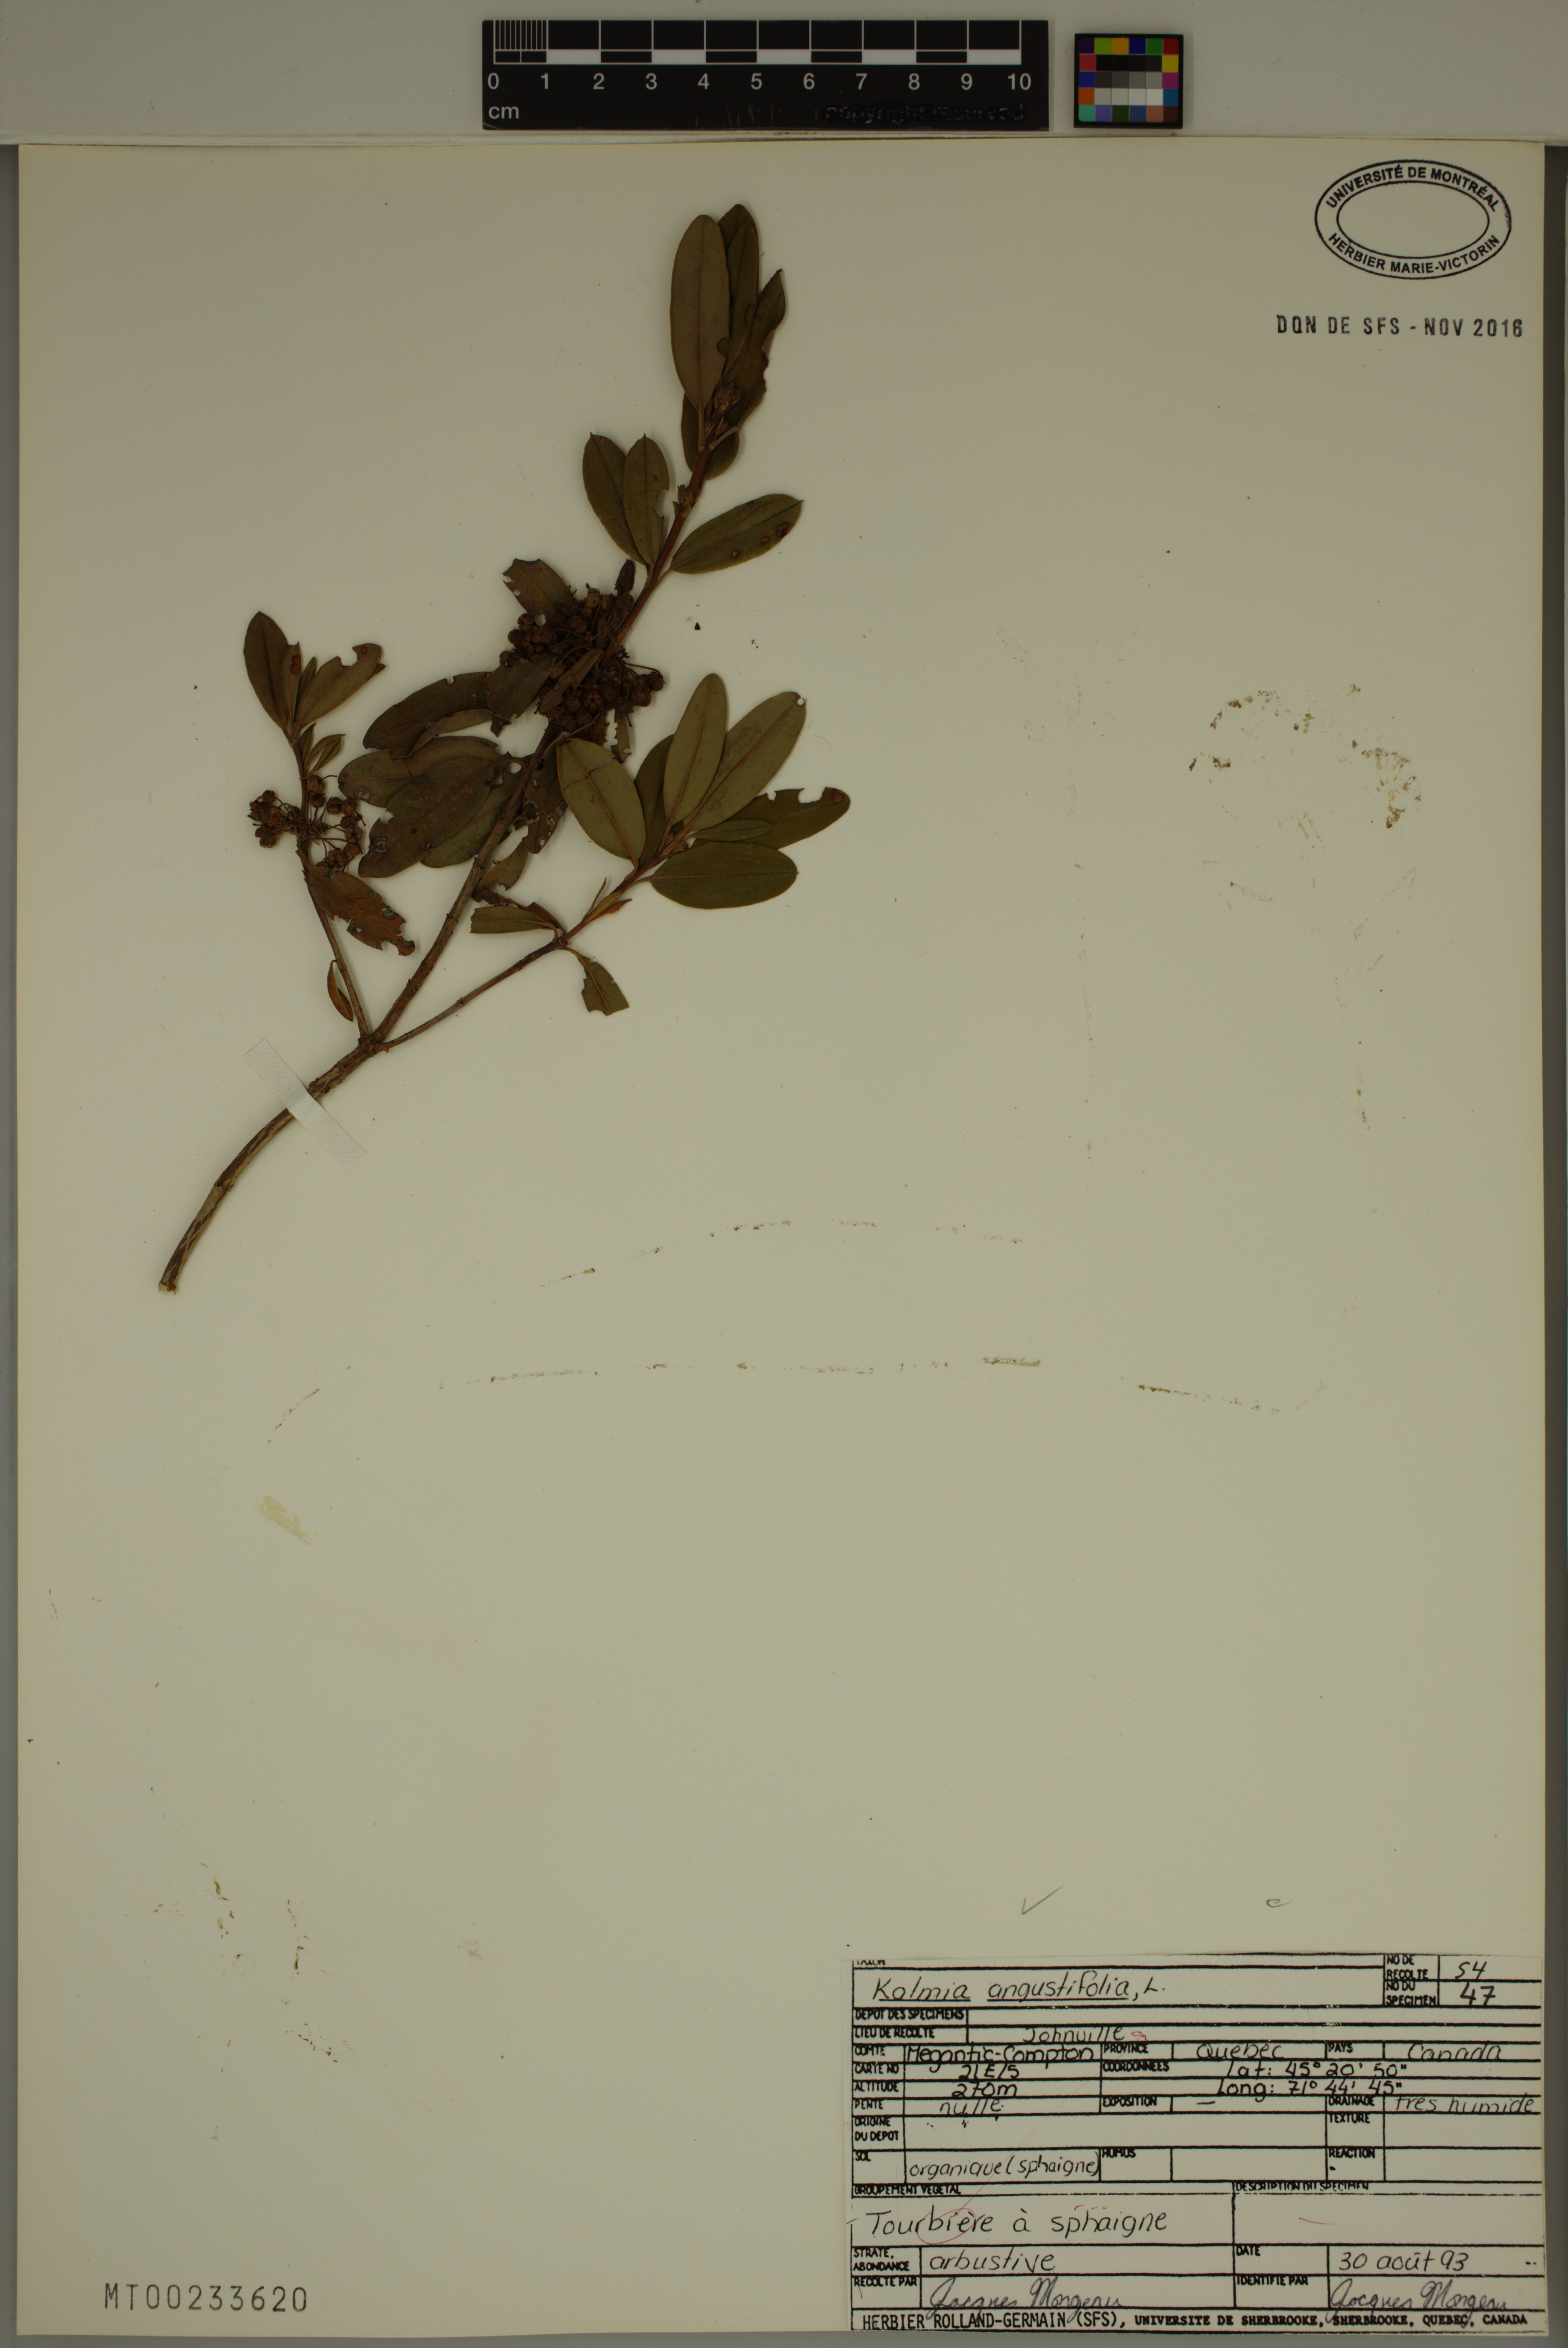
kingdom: Plantae
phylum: Tracheophyta
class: Magnoliopsida
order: Ericales
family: Ericaceae
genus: Kalmia
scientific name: Kalmia angustifolia
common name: Sheep-laurel
